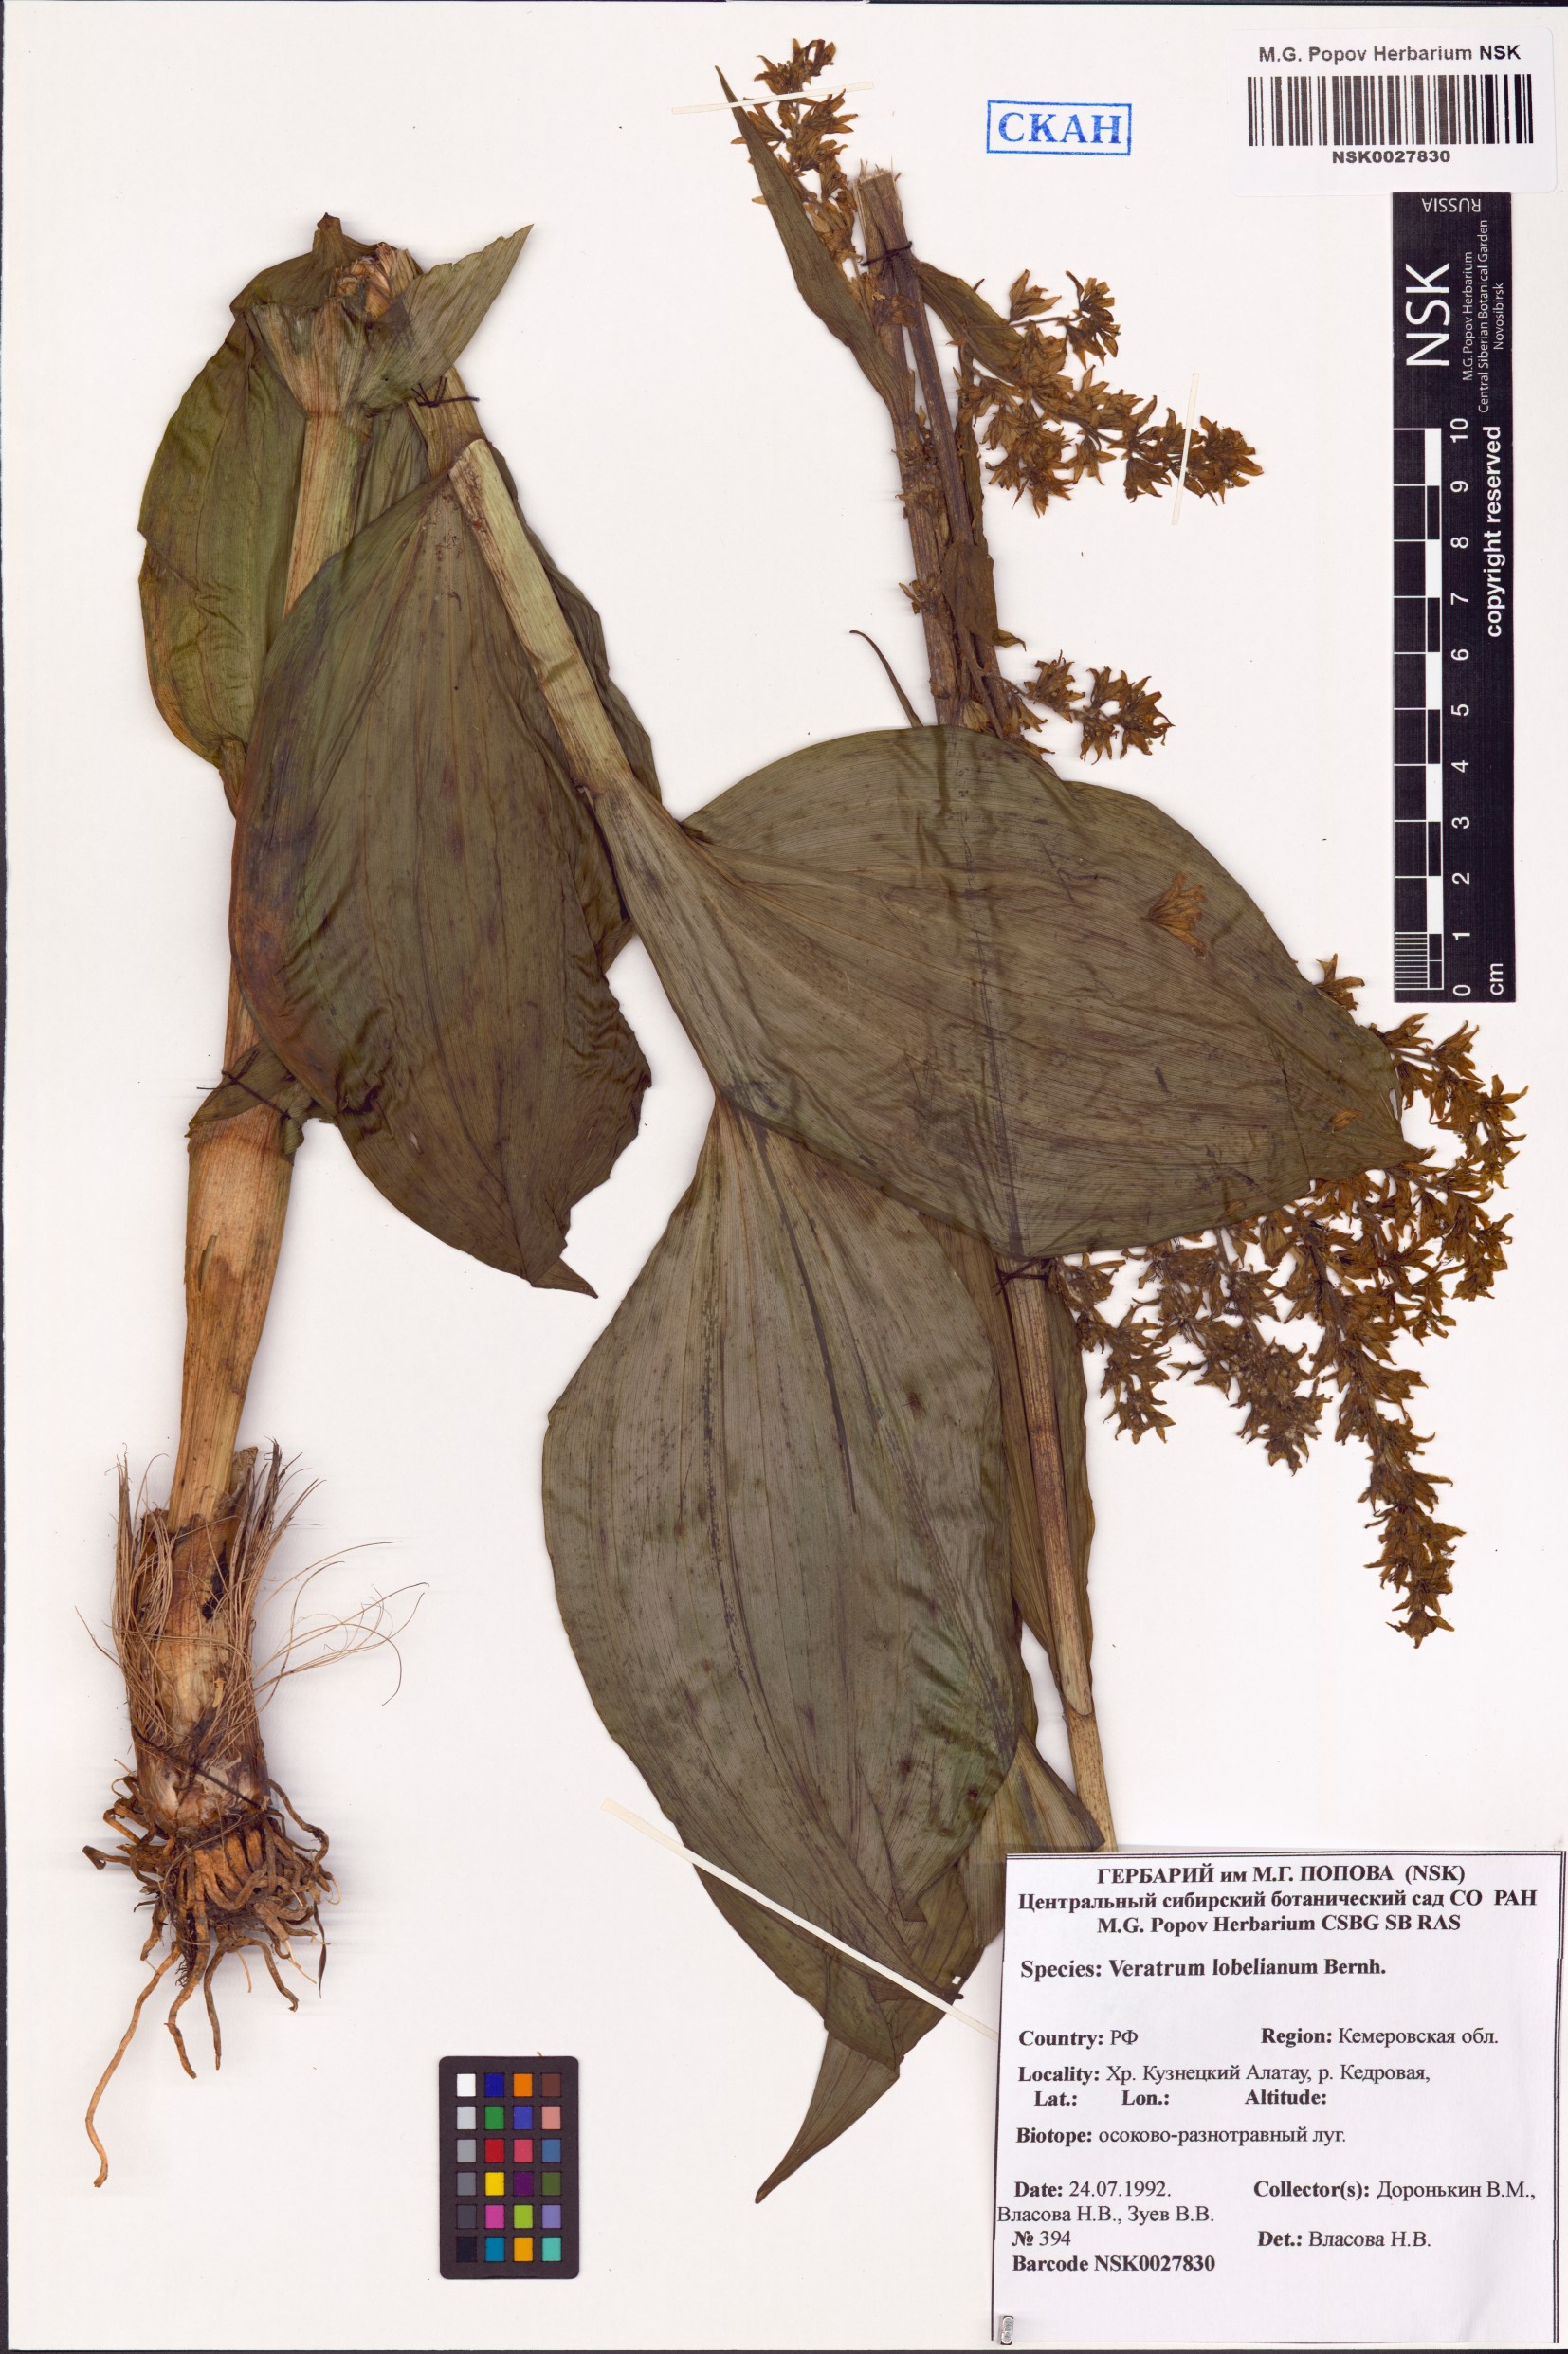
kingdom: Plantae
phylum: Tracheophyta
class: Liliopsida
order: Liliales
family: Melanthiaceae
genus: Veratrum
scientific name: Veratrum lobelianum
